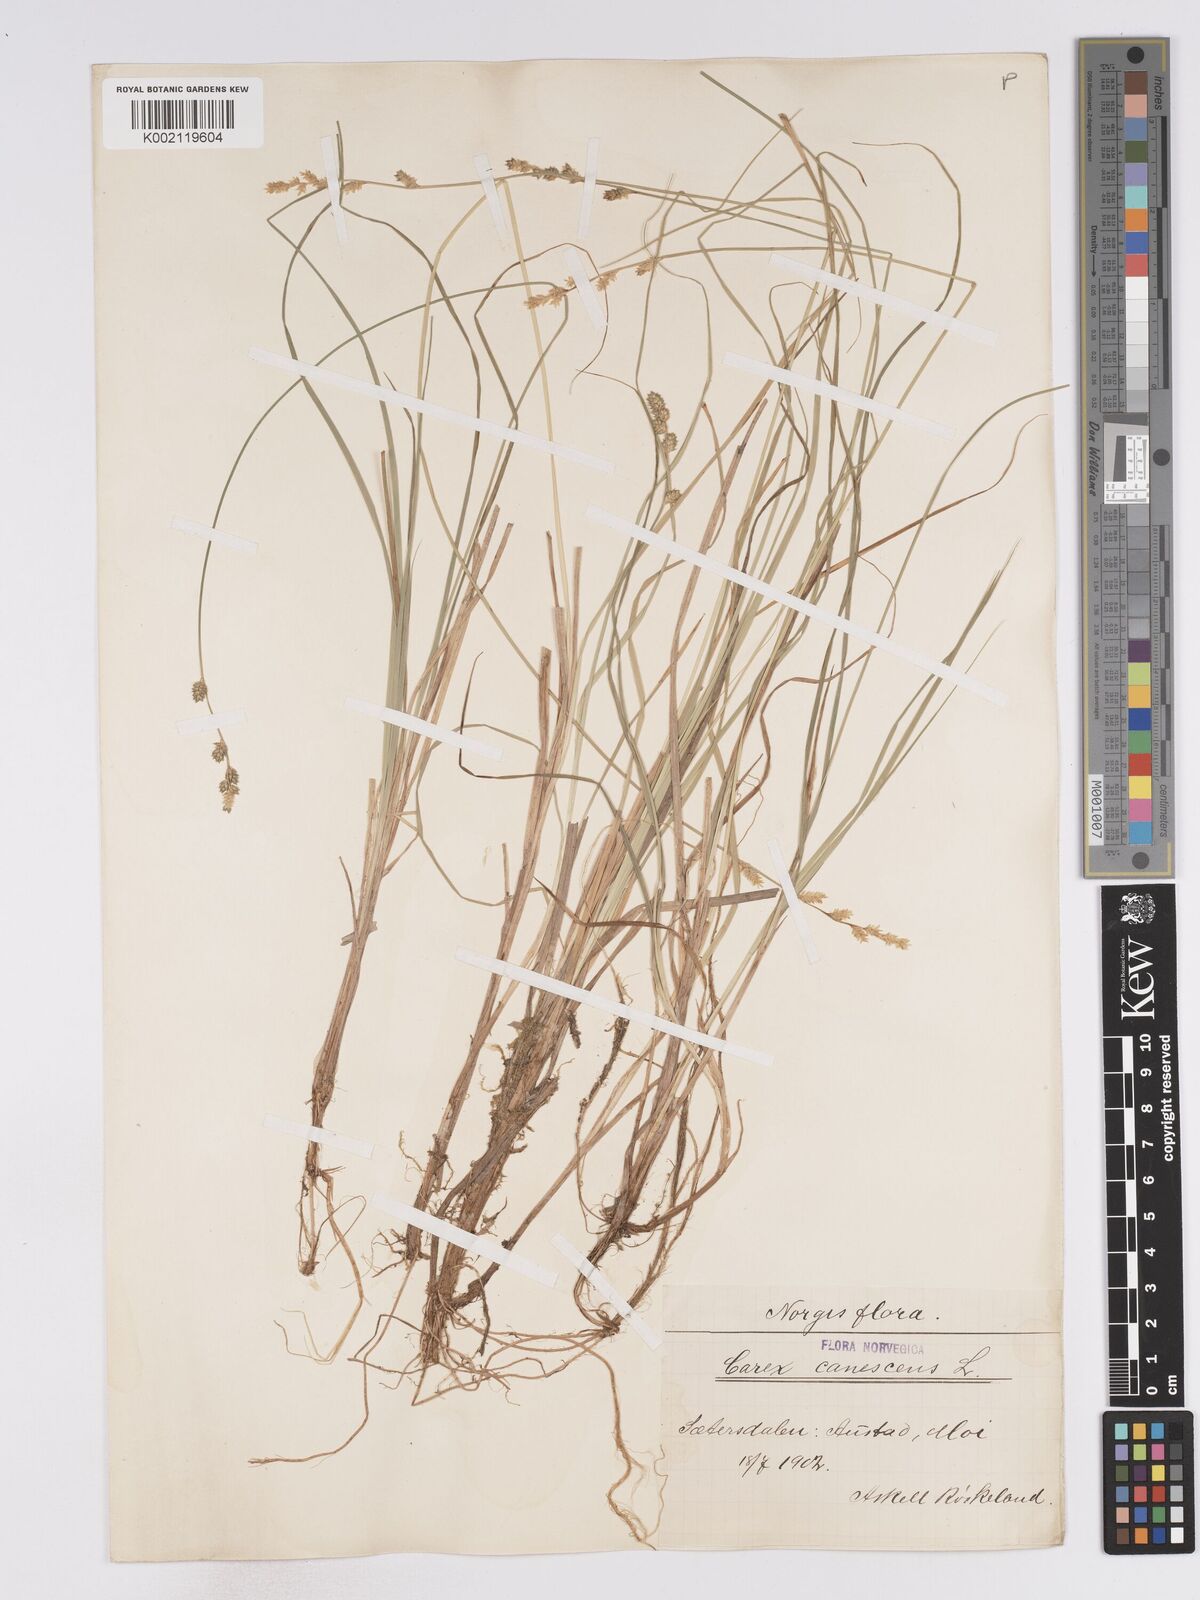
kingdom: Plantae
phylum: Tracheophyta
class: Liliopsida
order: Poales
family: Cyperaceae
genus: Carex
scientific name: Carex curta
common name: White sedge
